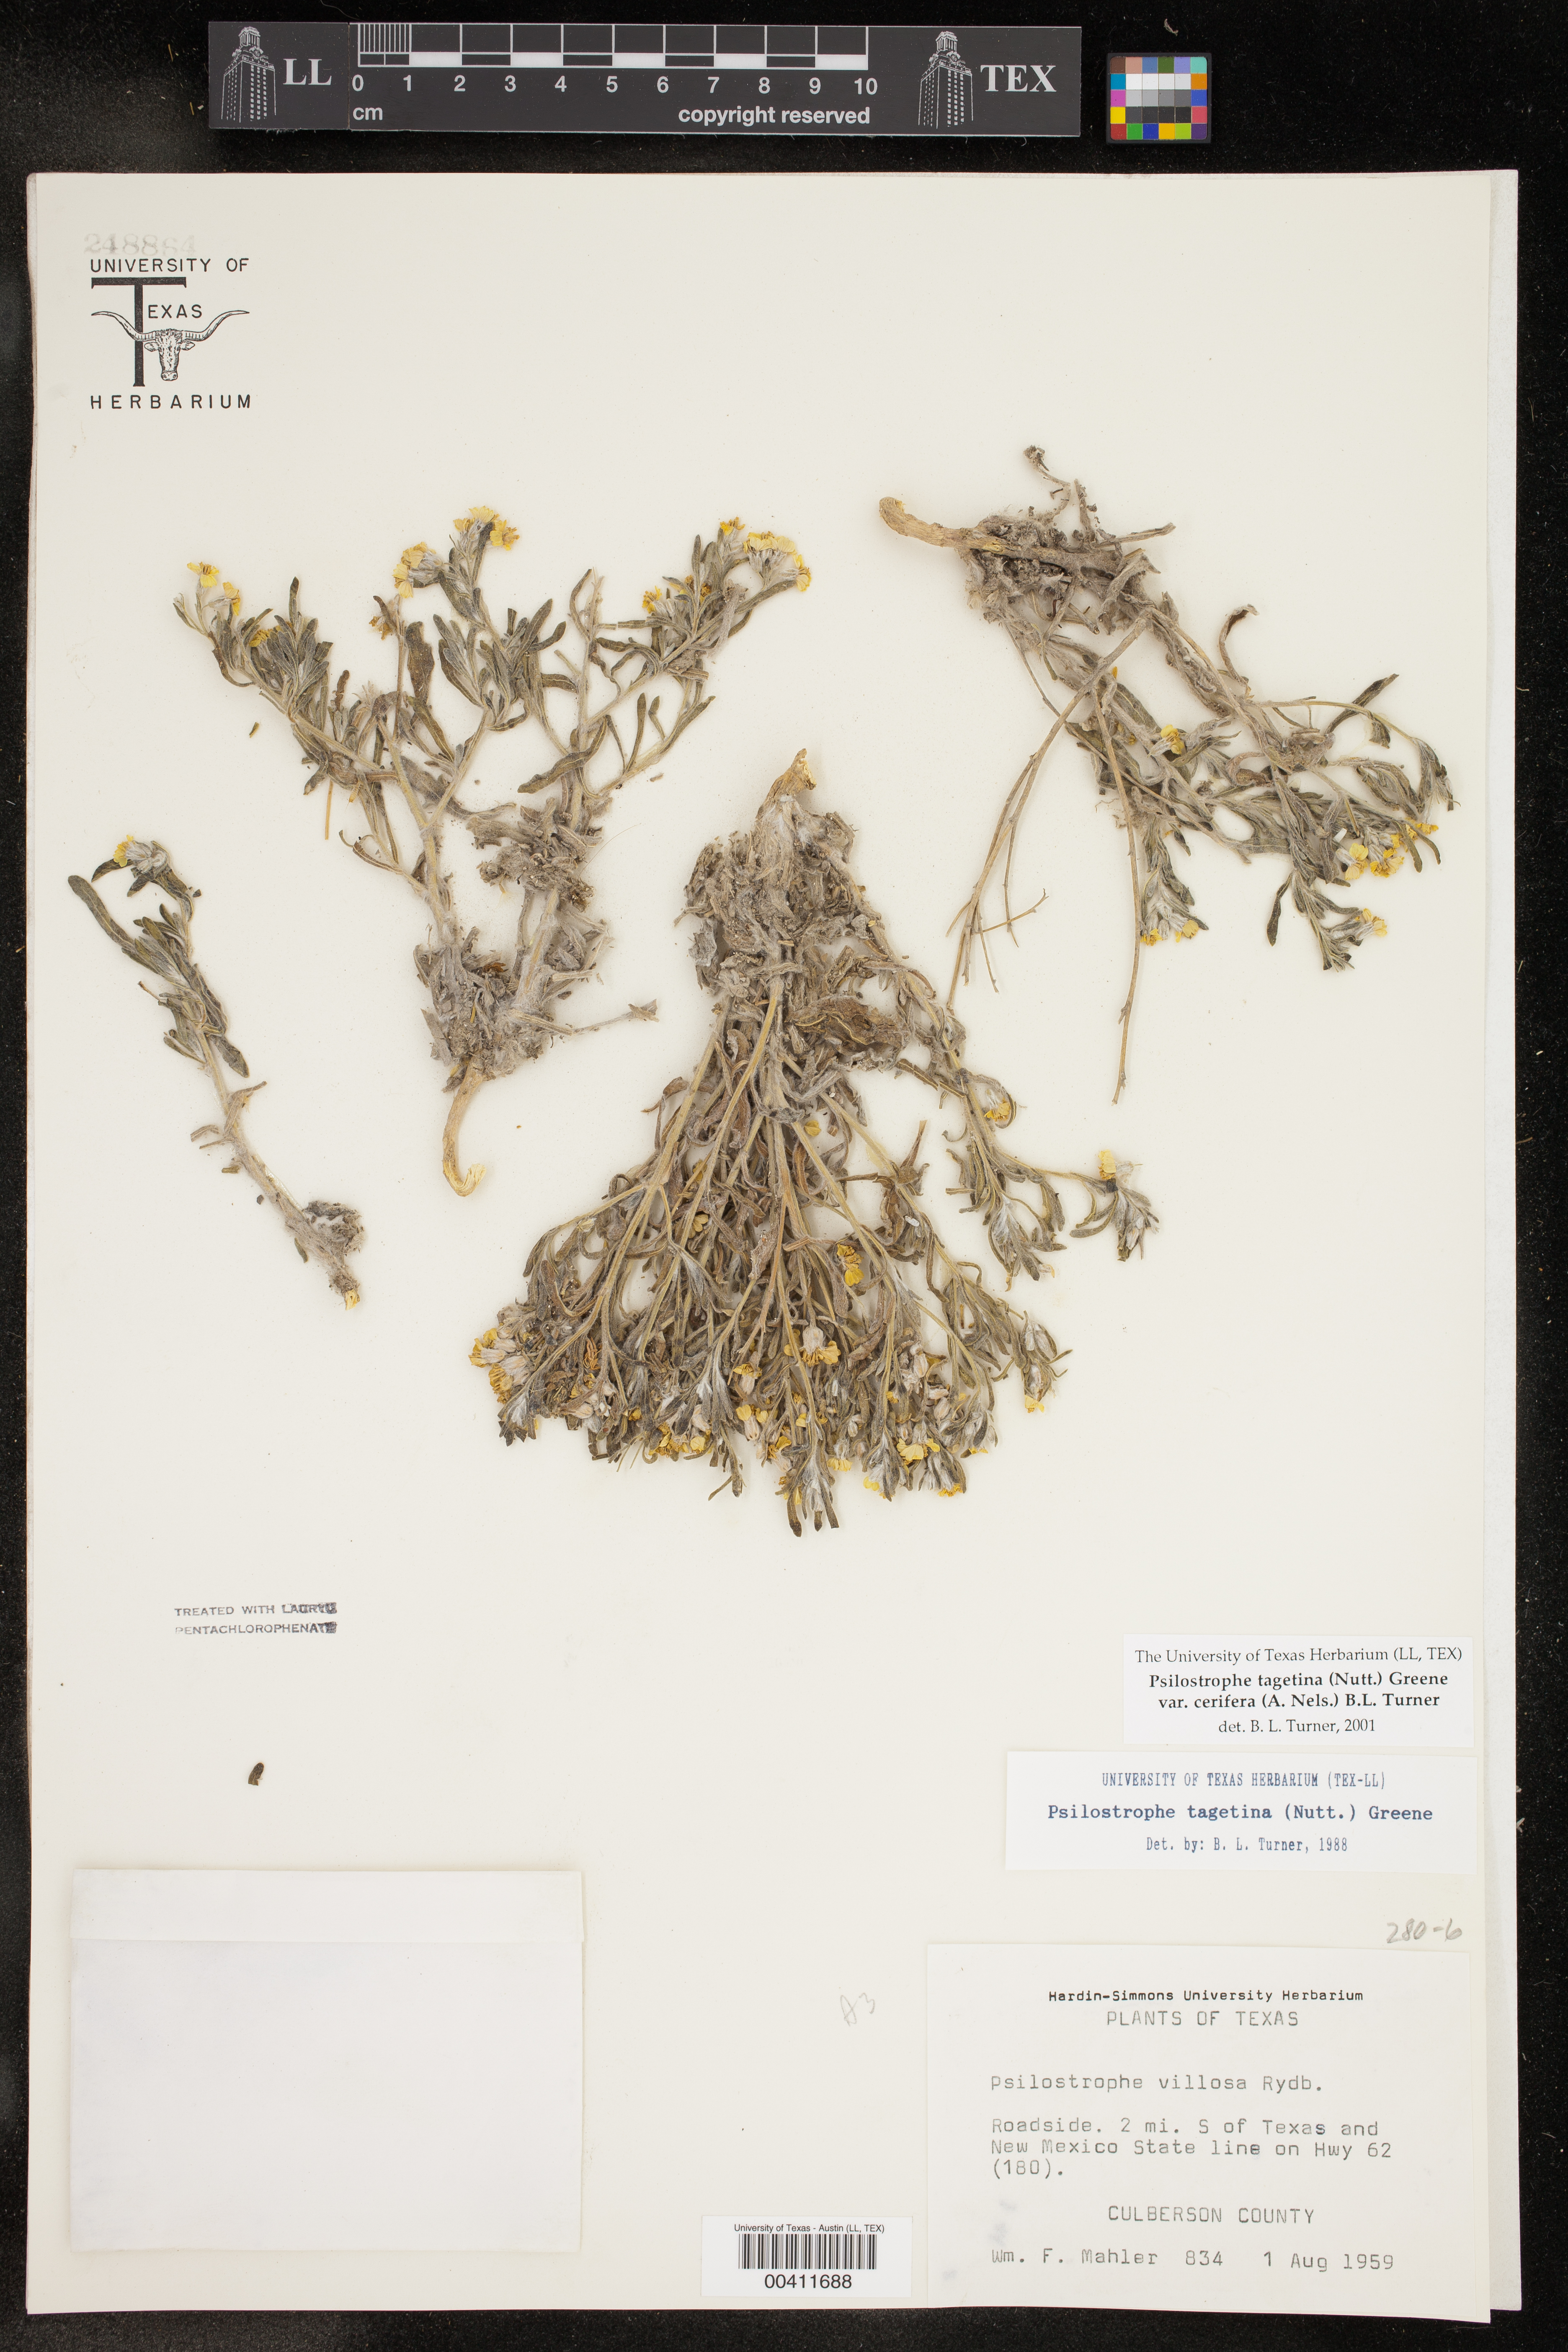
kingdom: Plantae
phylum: Tracheophyta
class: Magnoliopsida
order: Asterales
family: Asteraceae
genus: Psilostrophe
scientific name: Psilostrophe villosa
